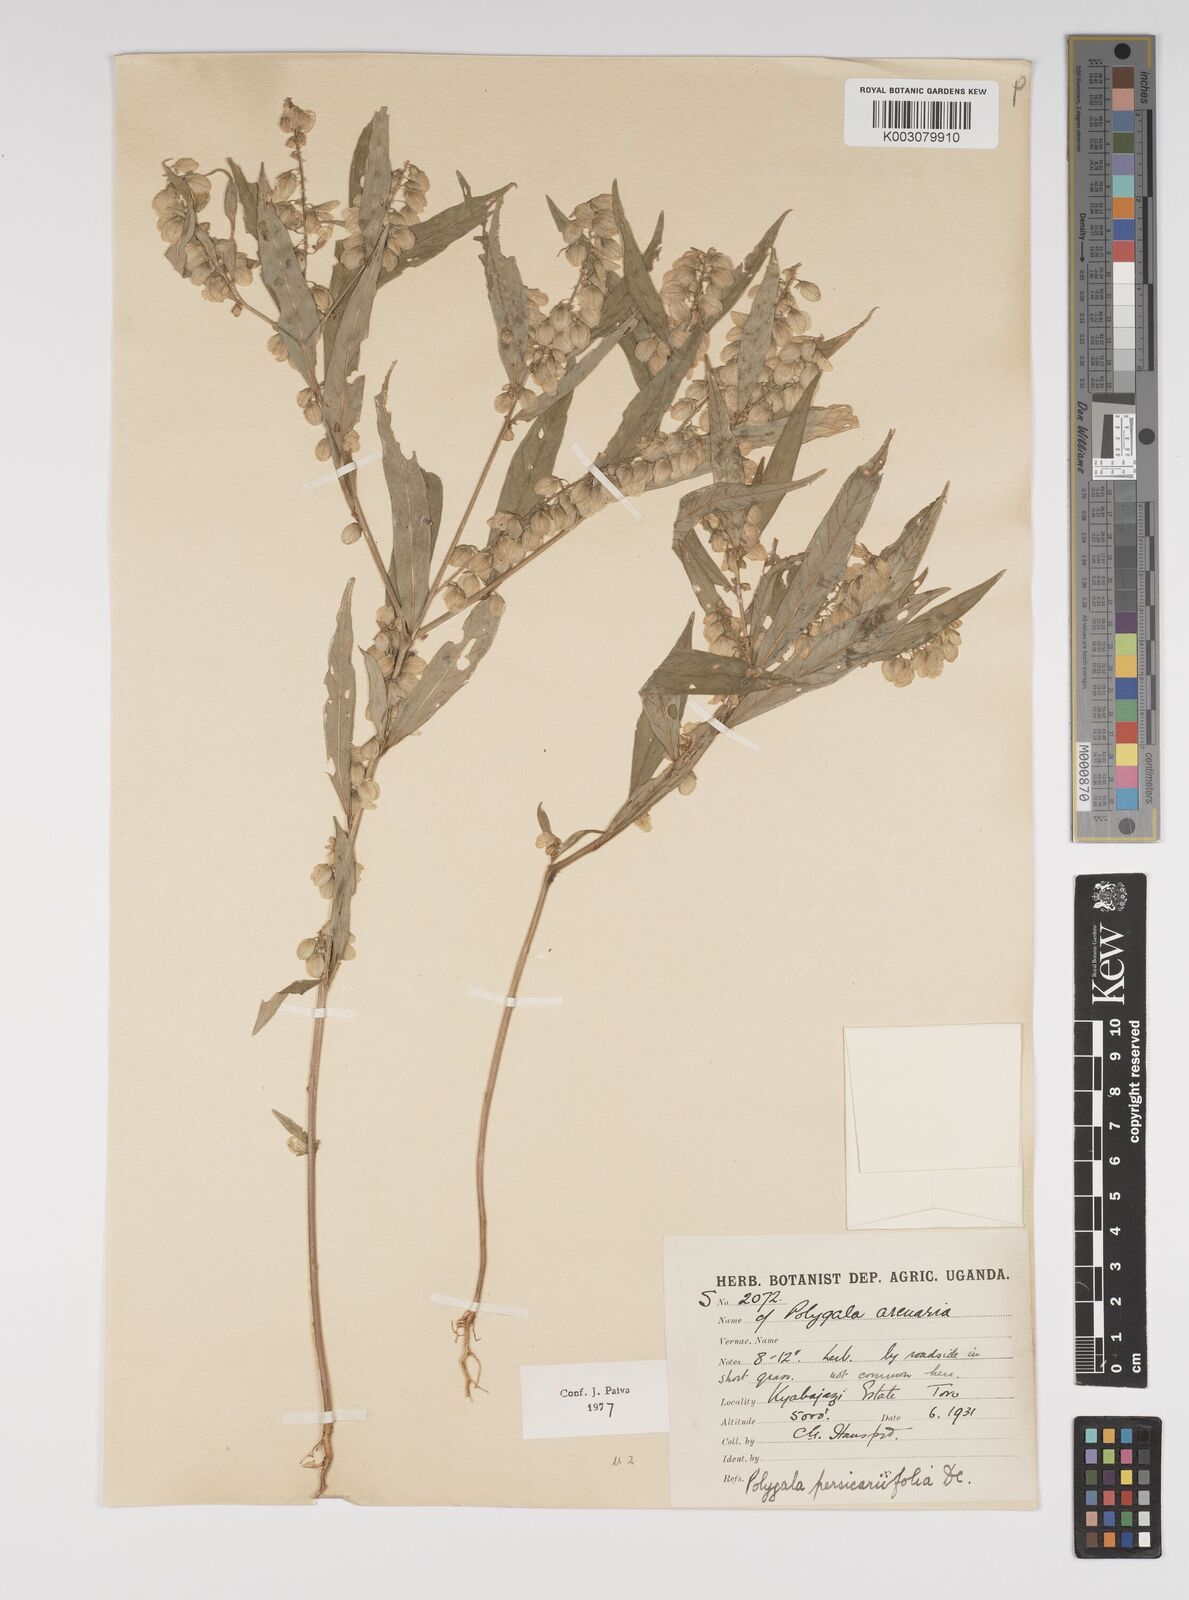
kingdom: Plantae
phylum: Tracheophyta
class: Magnoliopsida
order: Fabales
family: Polygalaceae
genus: Polygala
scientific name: Polygala persicariifolia
